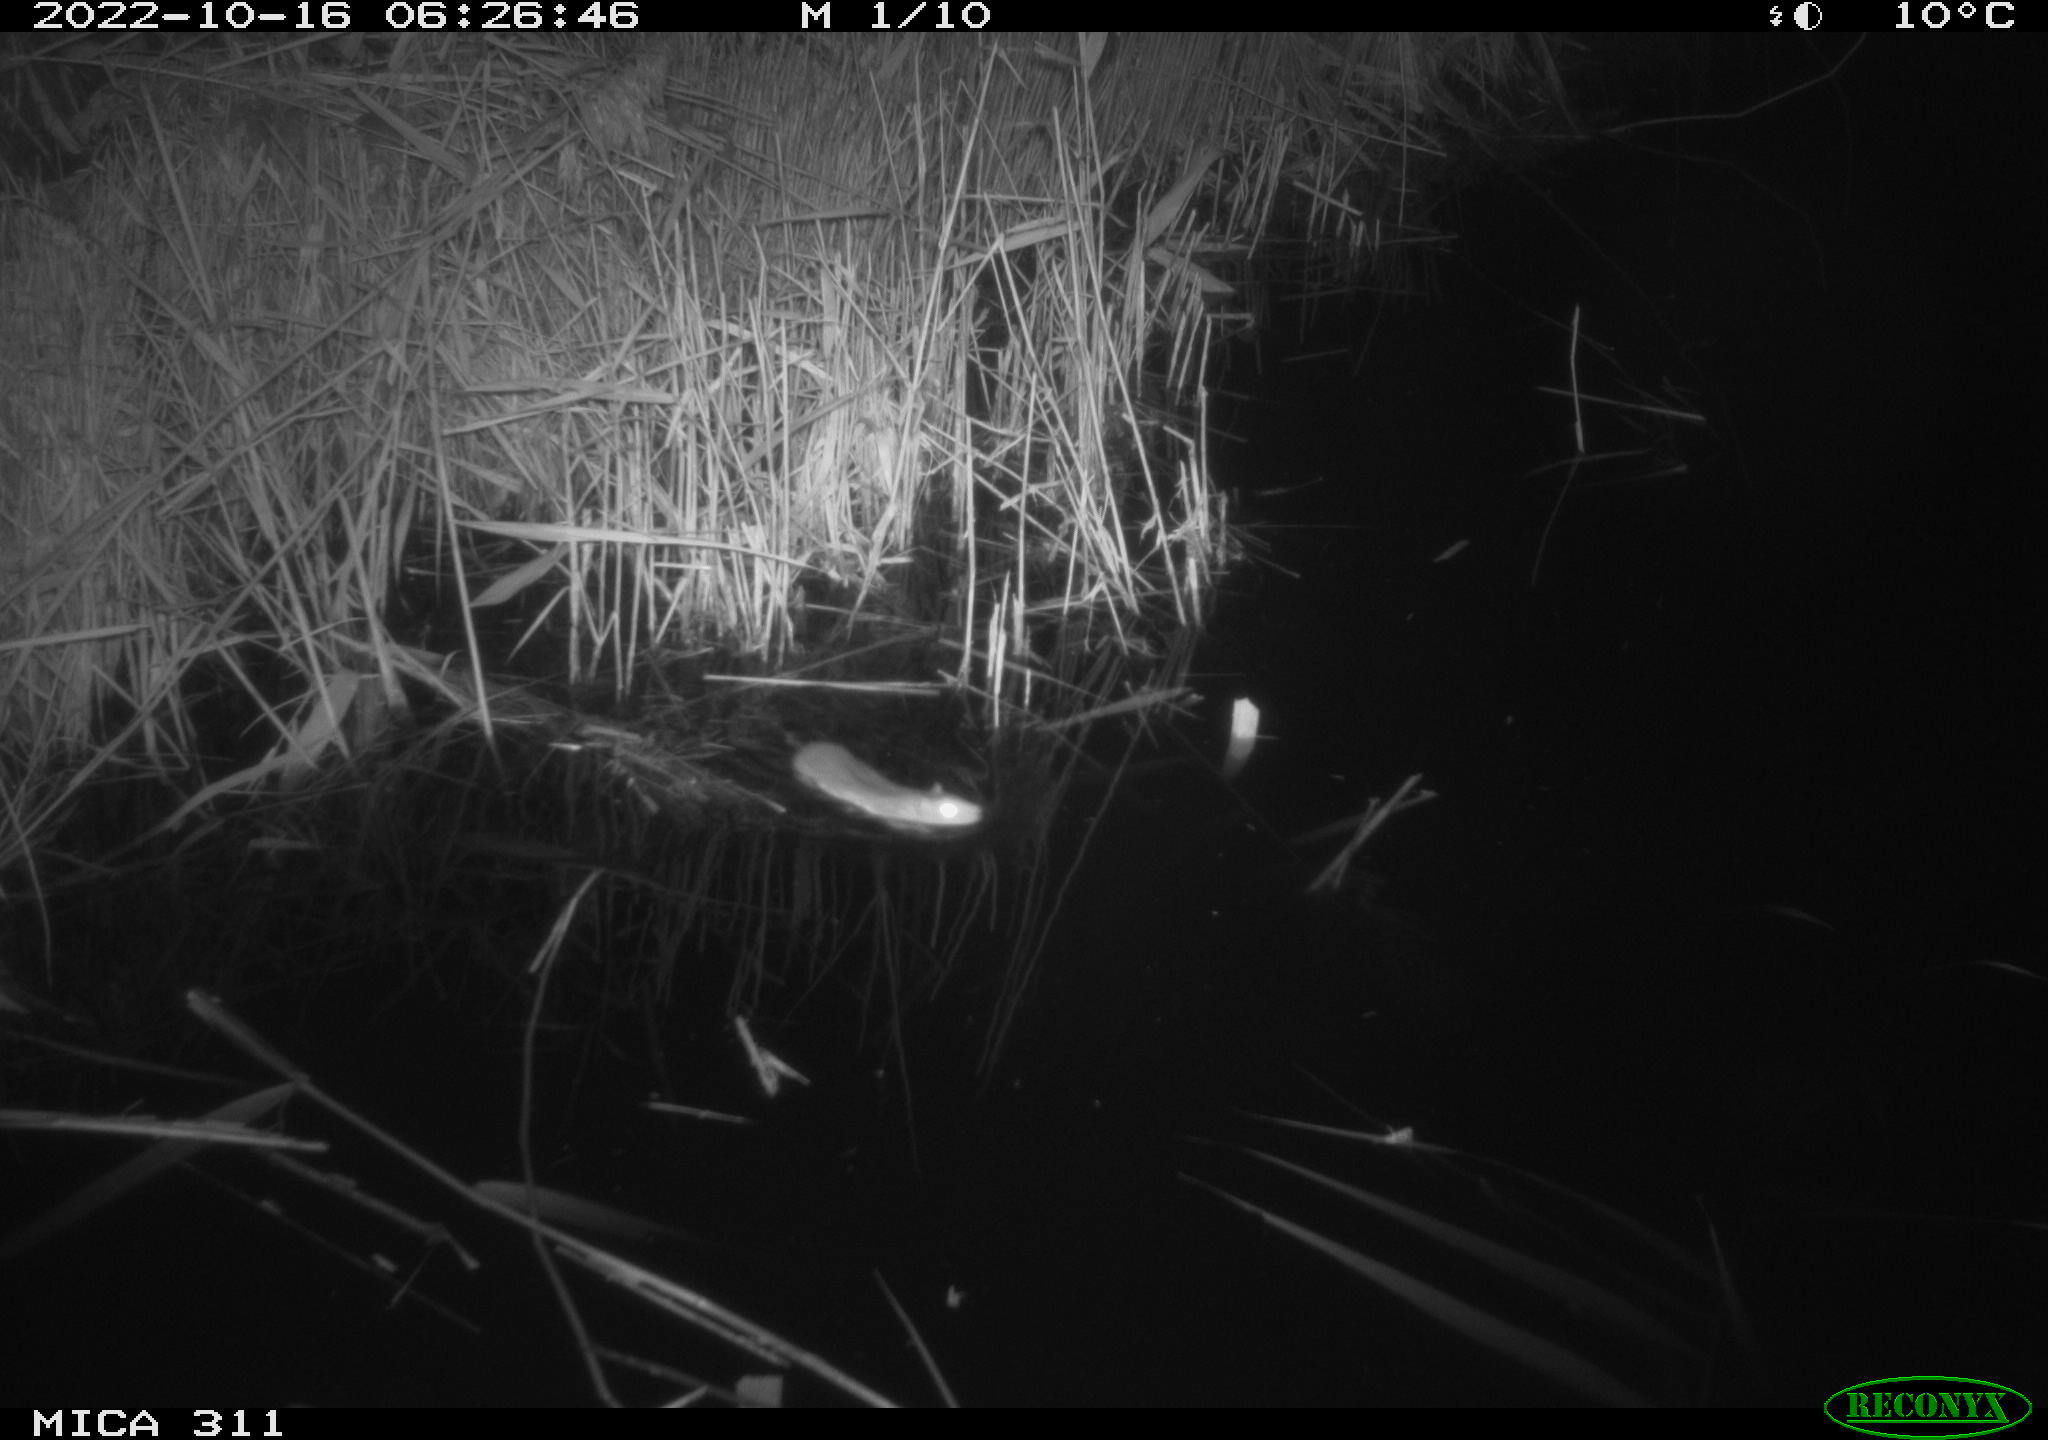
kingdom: Animalia
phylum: Chordata
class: Mammalia
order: Rodentia
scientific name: Rodentia
